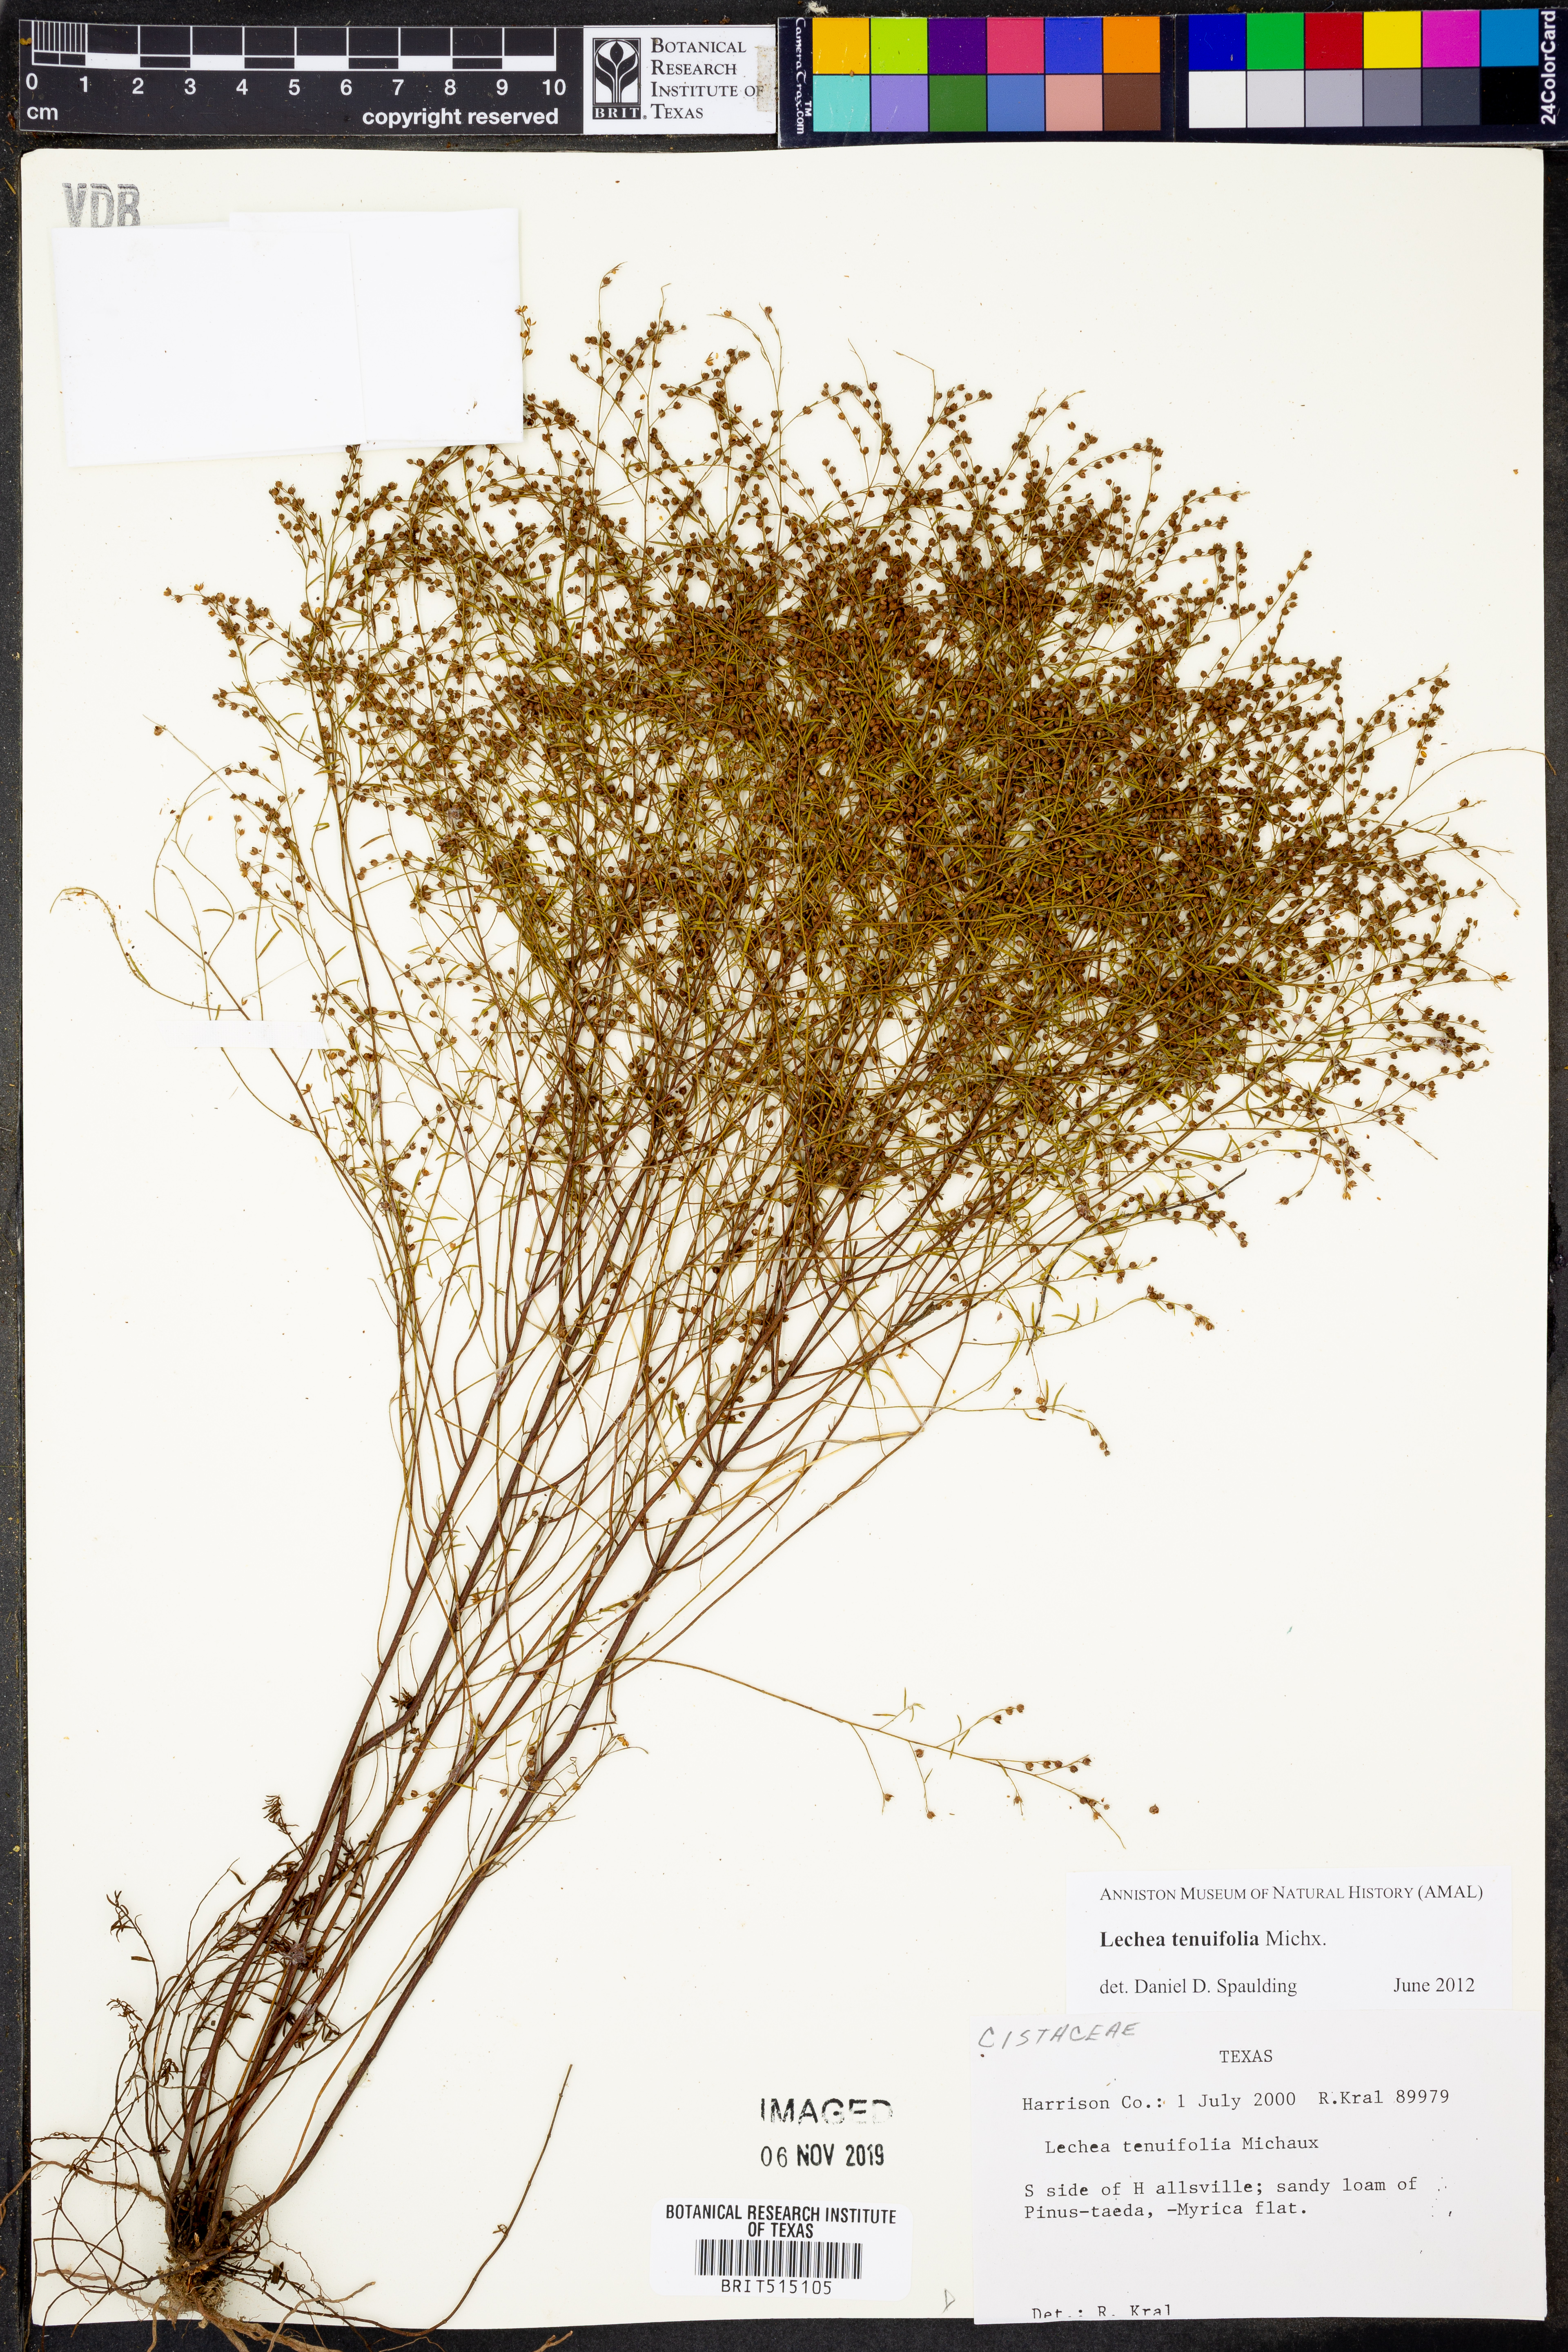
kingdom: Plantae
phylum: Tracheophyta
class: Magnoliopsida
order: Malvales
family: Cistaceae
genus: Lechea
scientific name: Lechea tenuifolia
